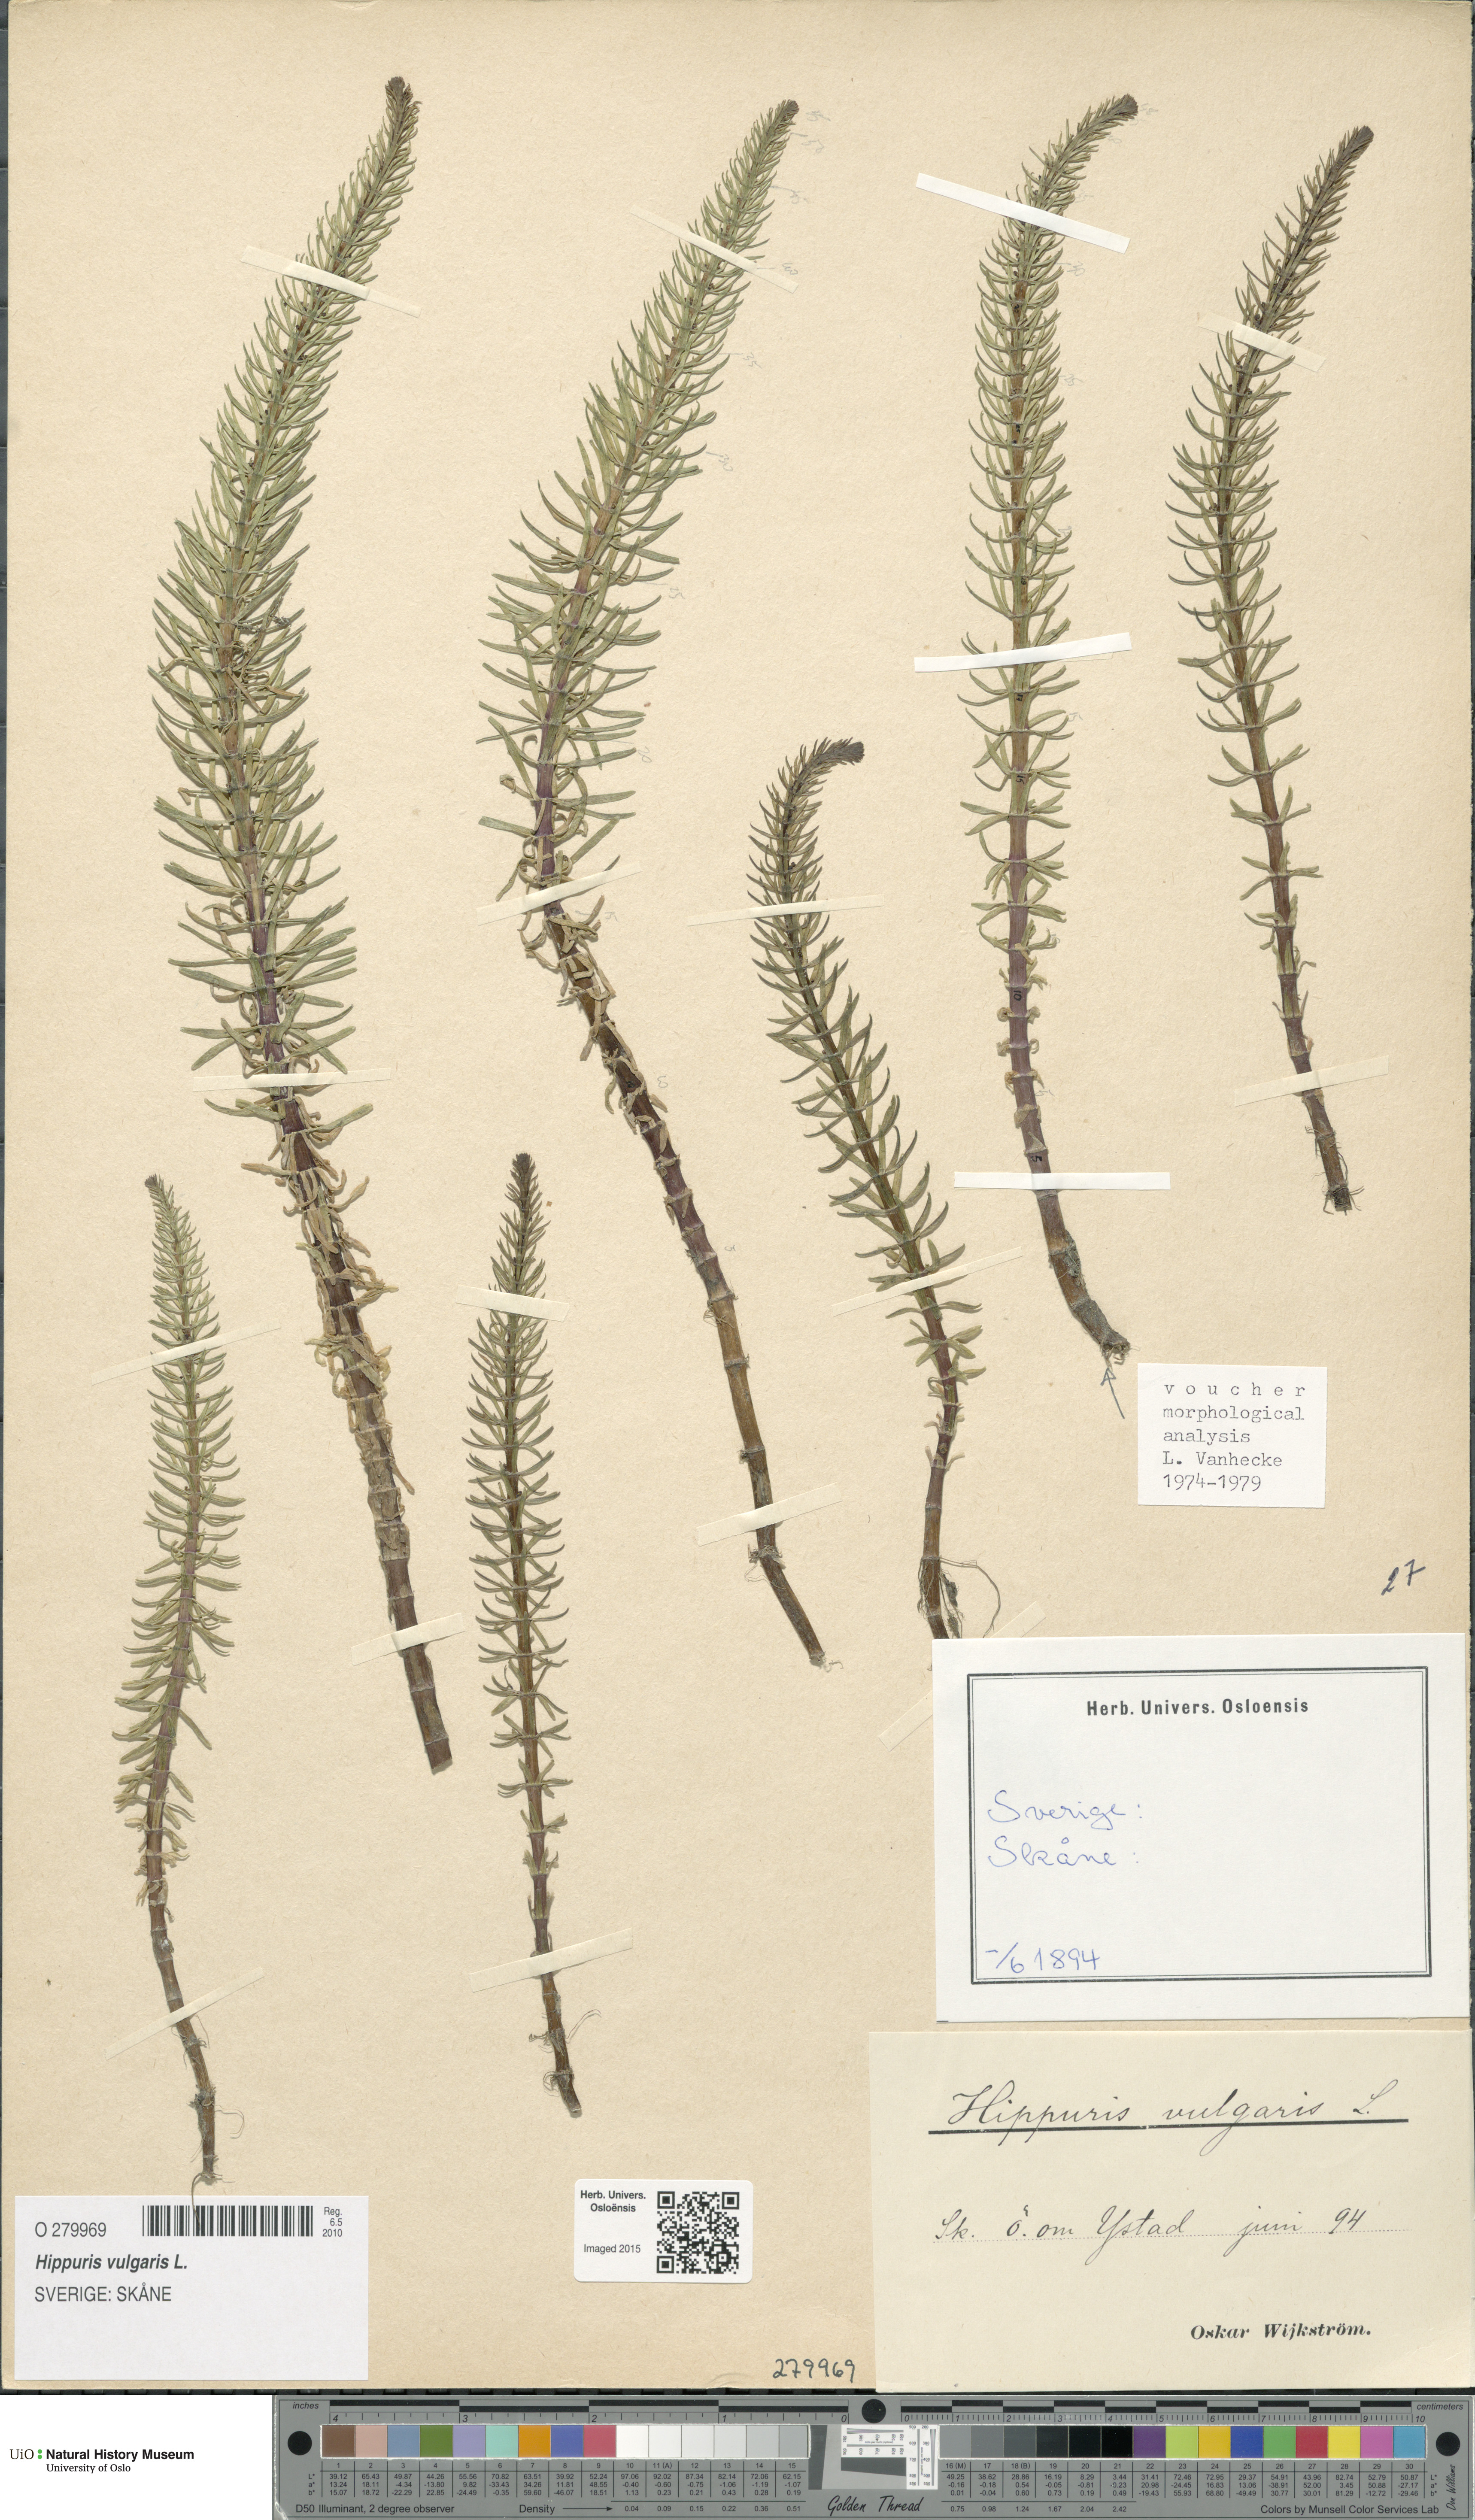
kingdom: Plantae
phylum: Tracheophyta
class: Magnoliopsida
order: Lamiales
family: Plantaginaceae
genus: Hippuris
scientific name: Hippuris vulgaris
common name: Mare's-tail
